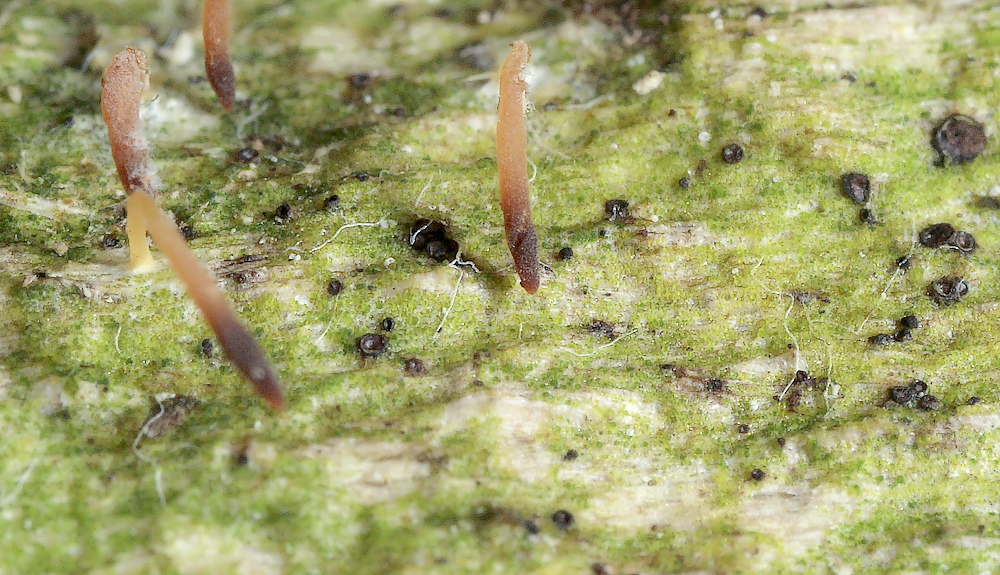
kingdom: Fungi
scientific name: Fungi
